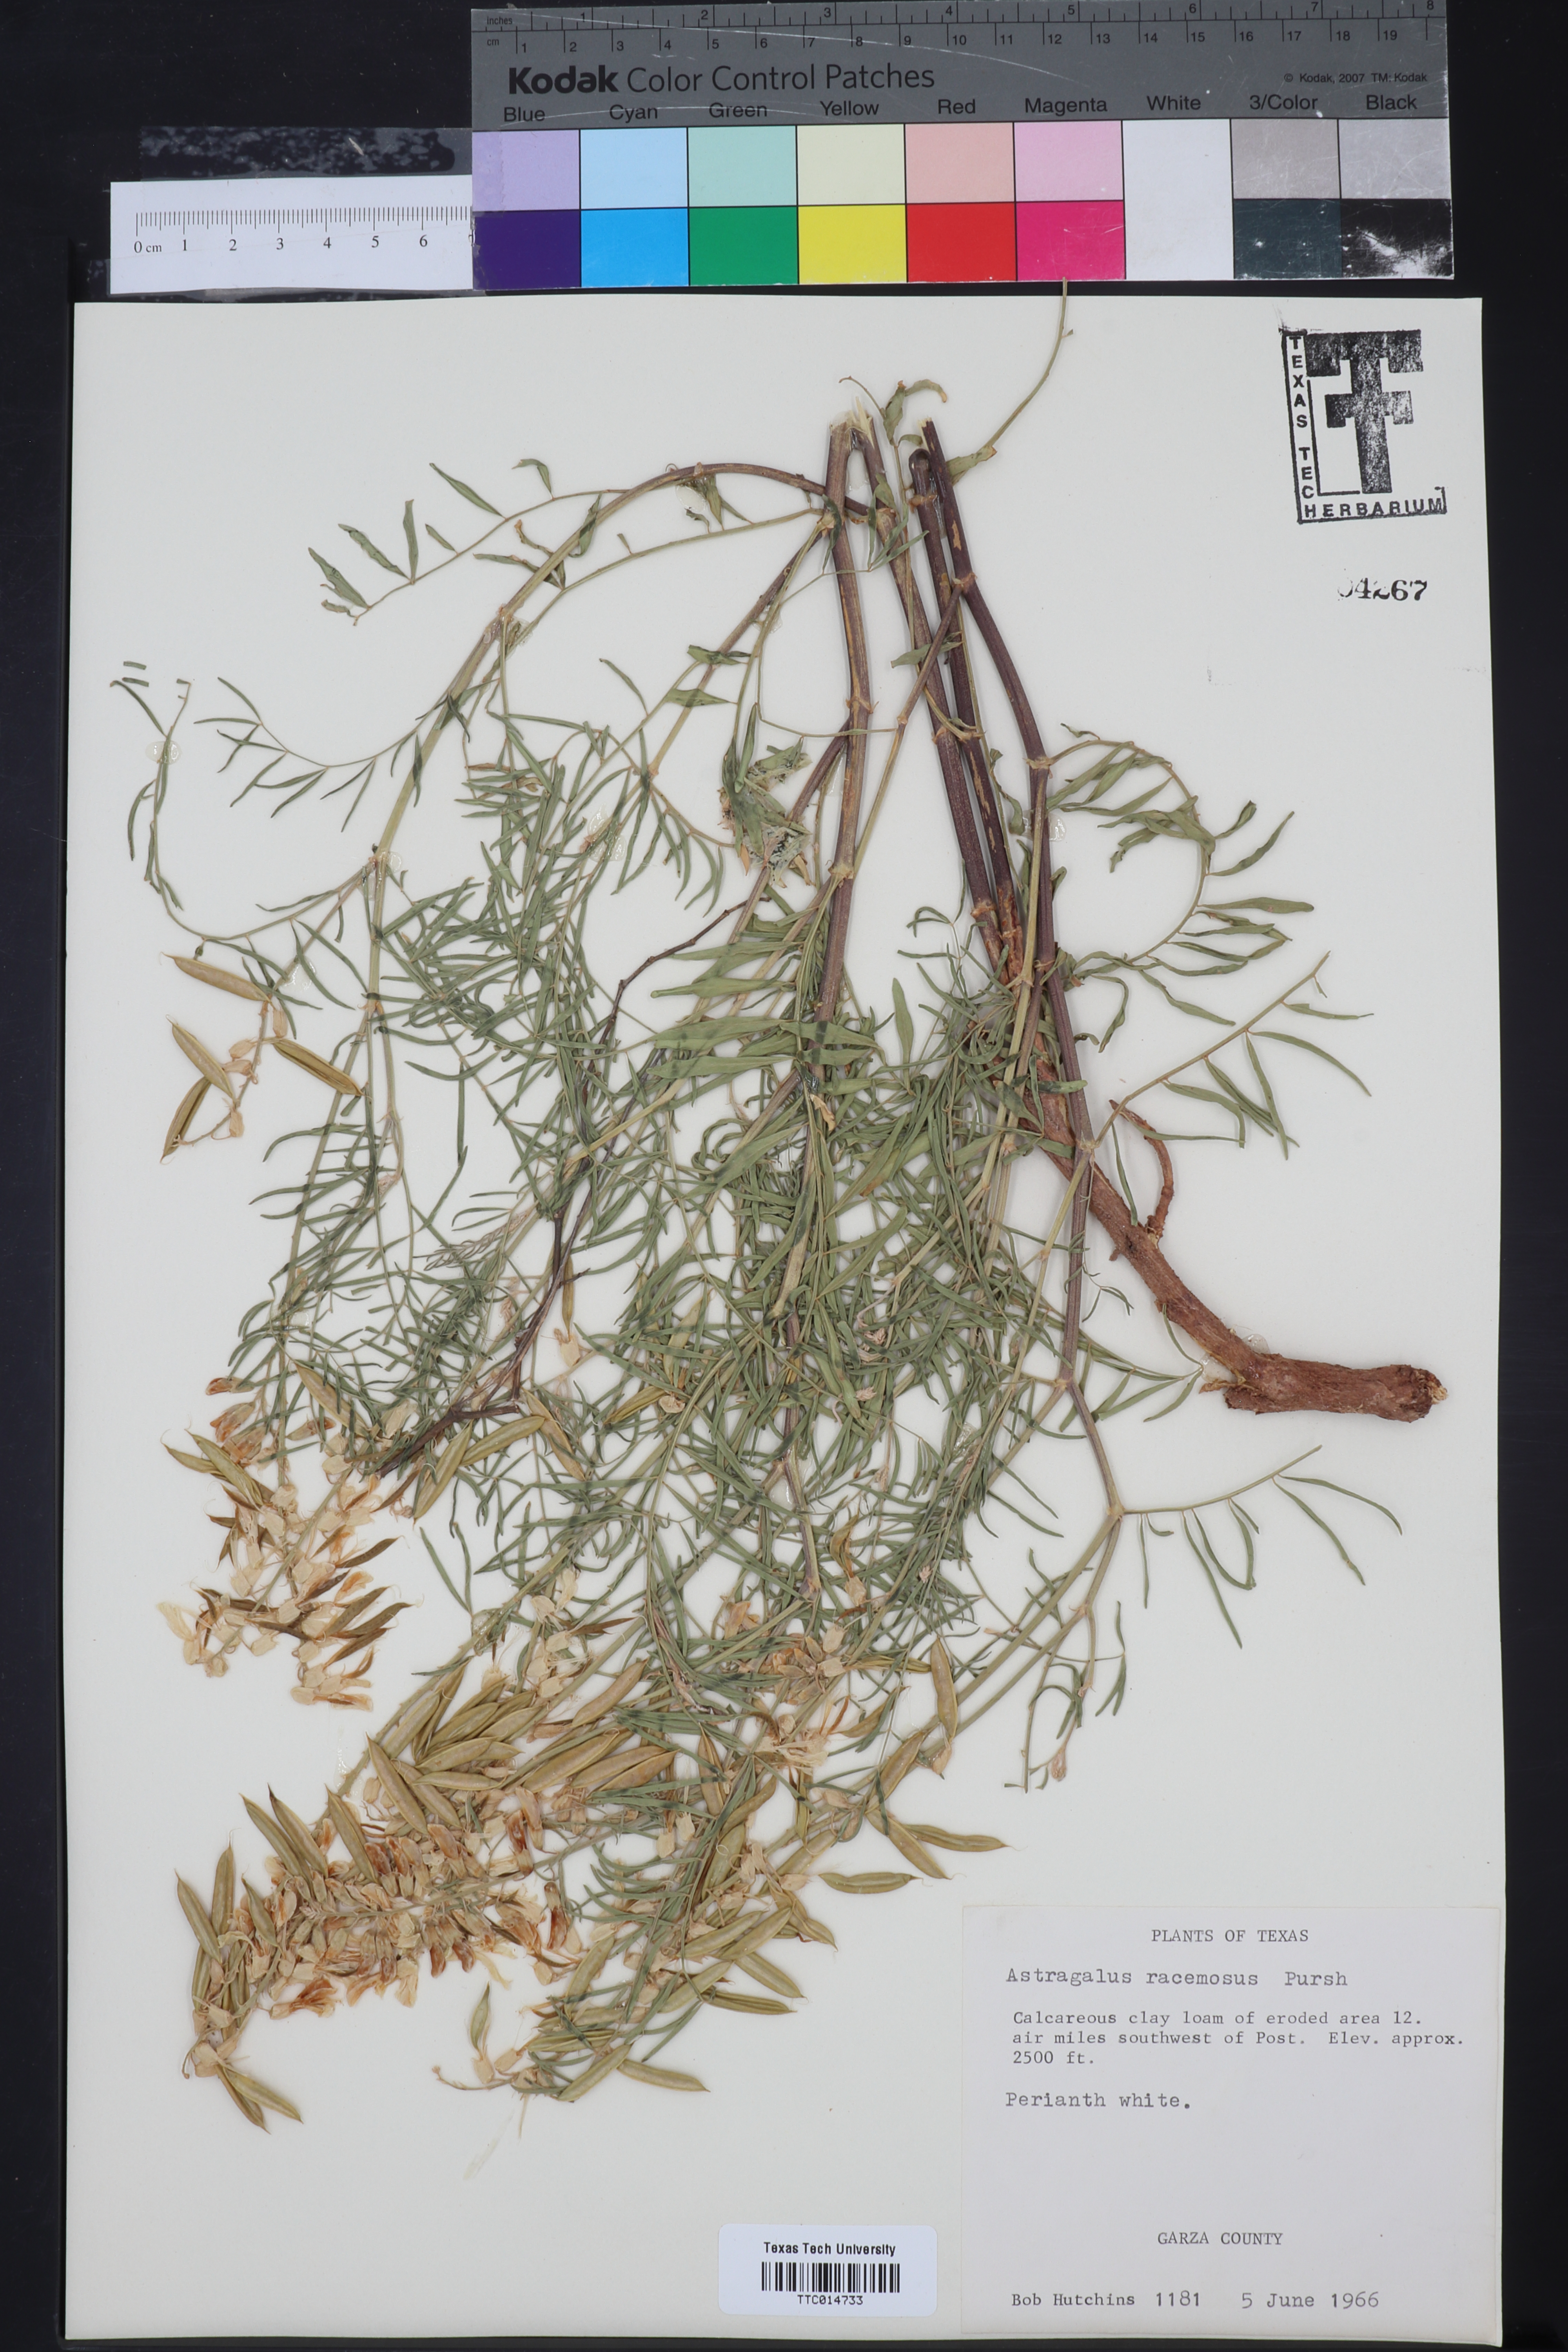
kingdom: Plantae
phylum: Tracheophyta
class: Magnoliopsida
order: Fabales
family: Fabaceae
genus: Astragalus
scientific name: Astragalus racemosus
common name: Alkali milk-vetch
